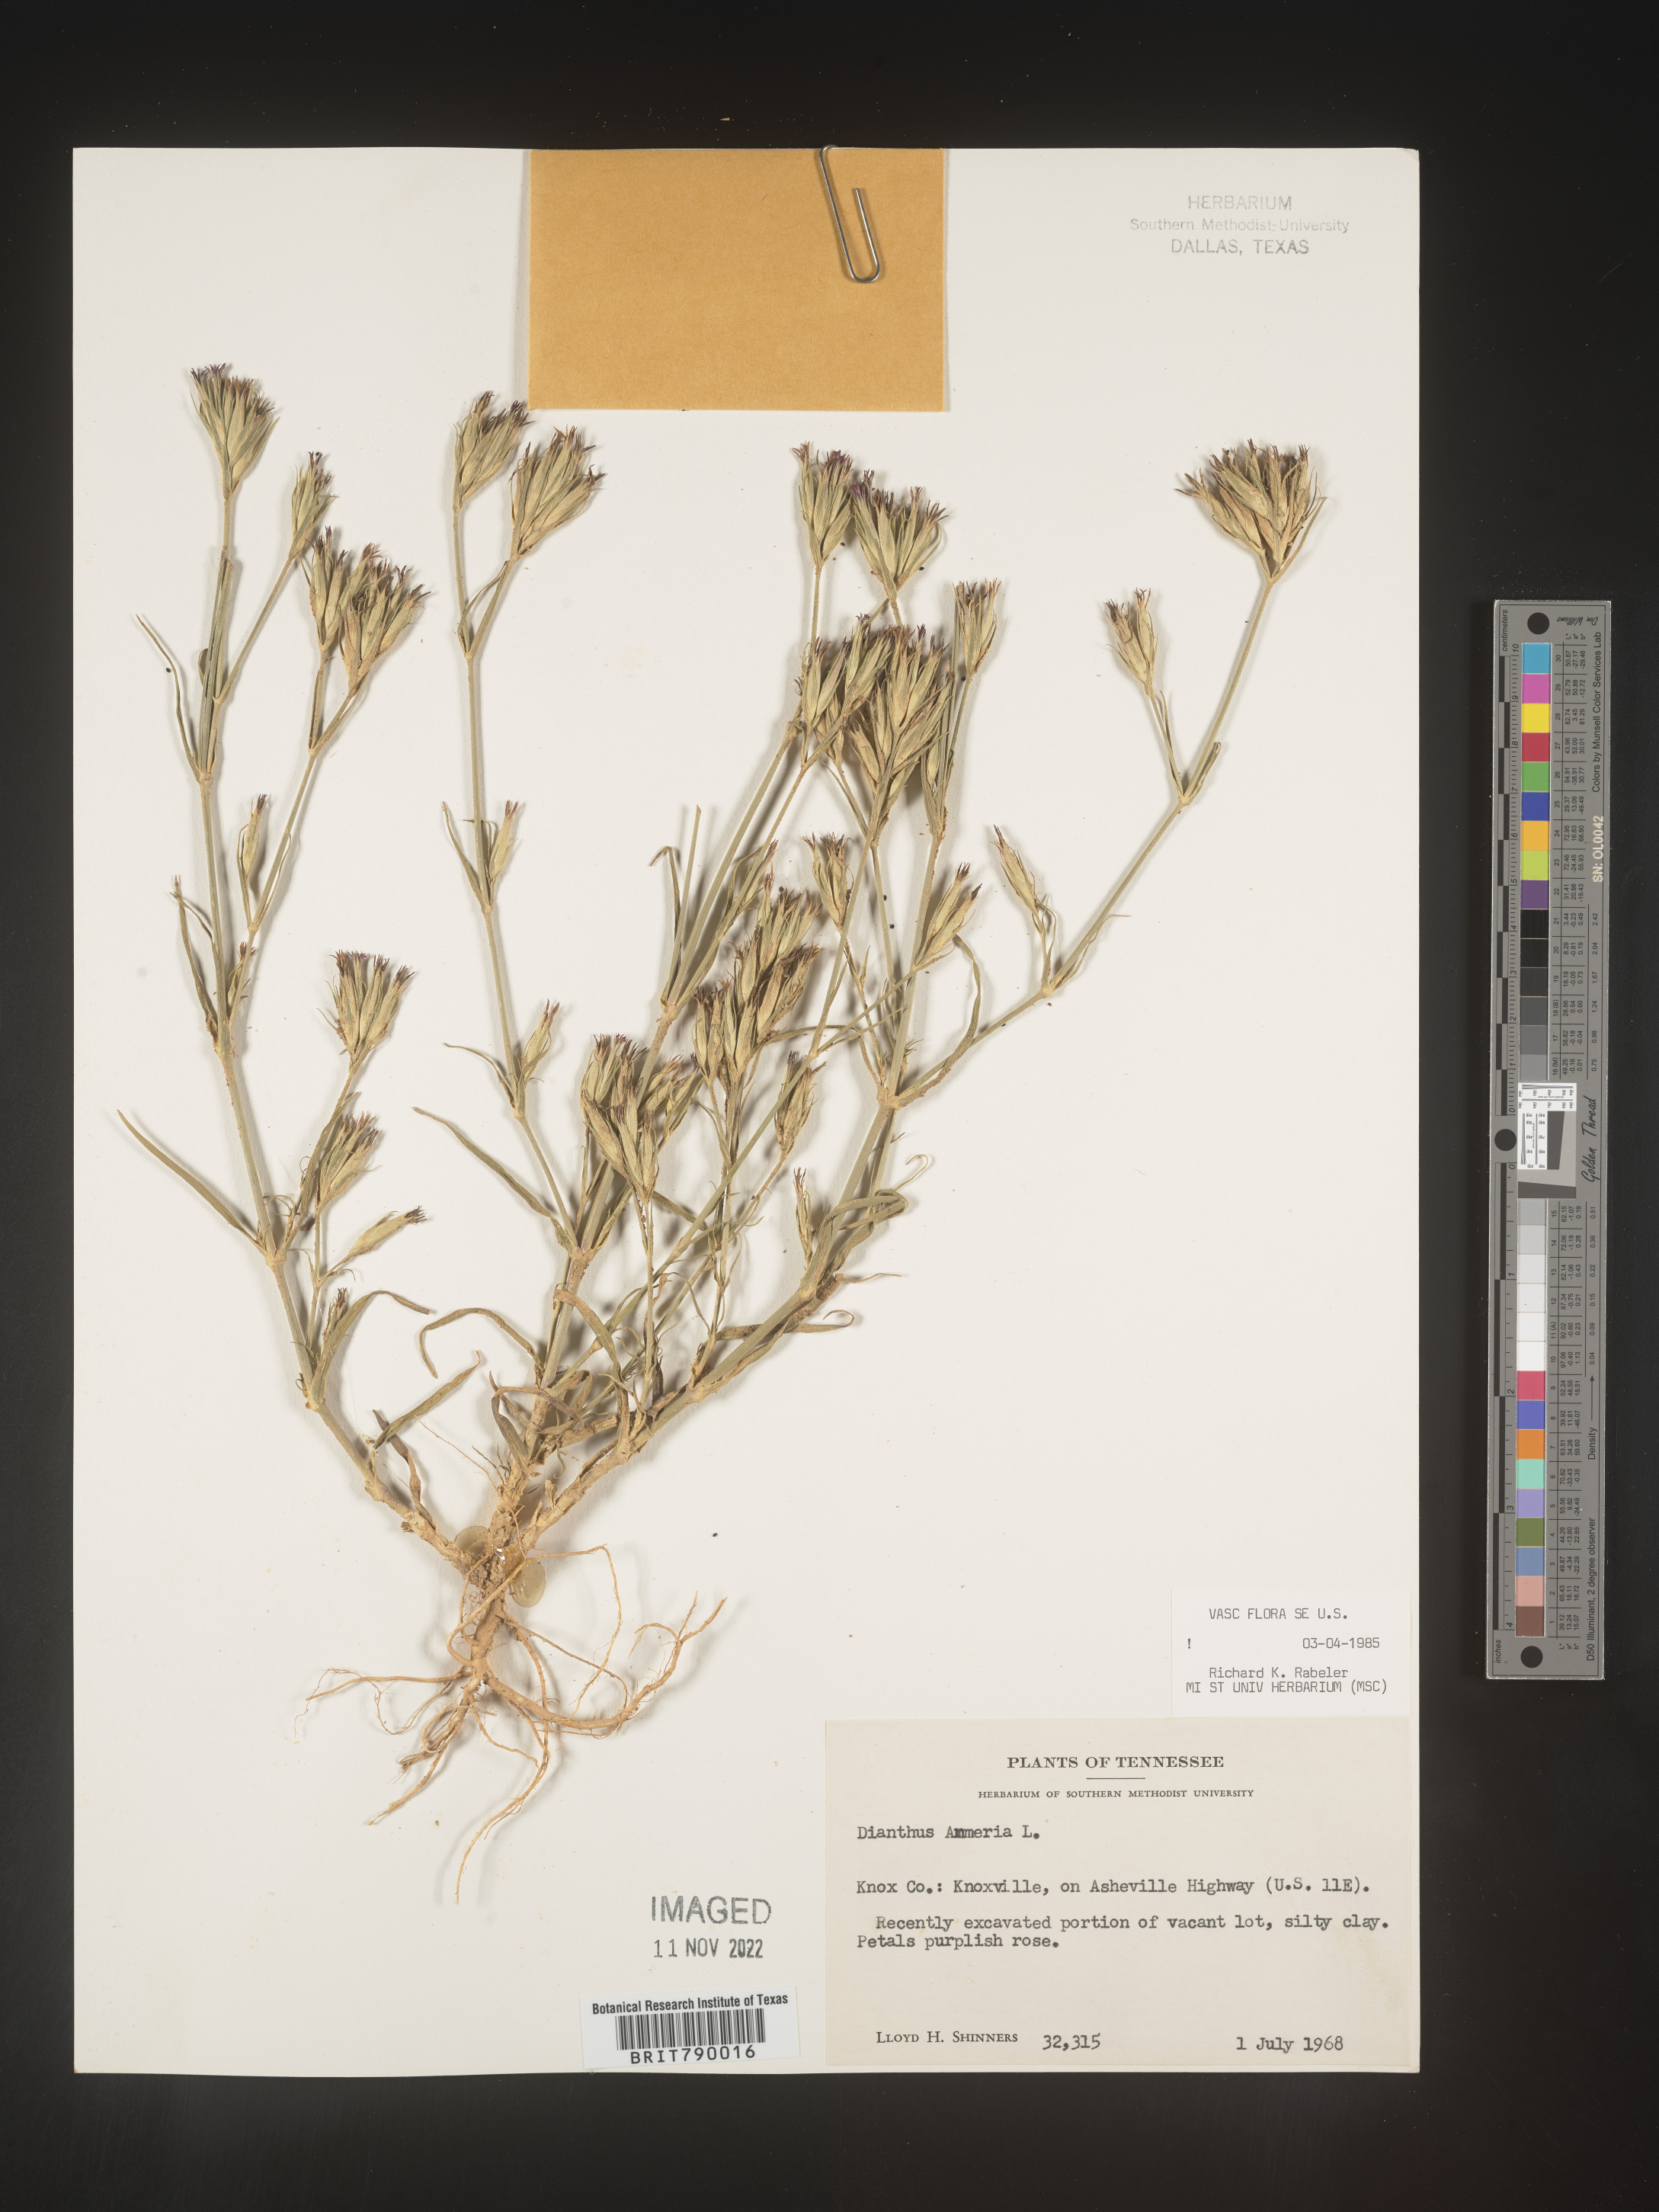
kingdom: Plantae
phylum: Tracheophyta
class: Magnoliopsida
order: Caryophyllales
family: Caryophyllaceae
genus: Dianthus
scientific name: Dianthus armeria
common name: Deptford pink
